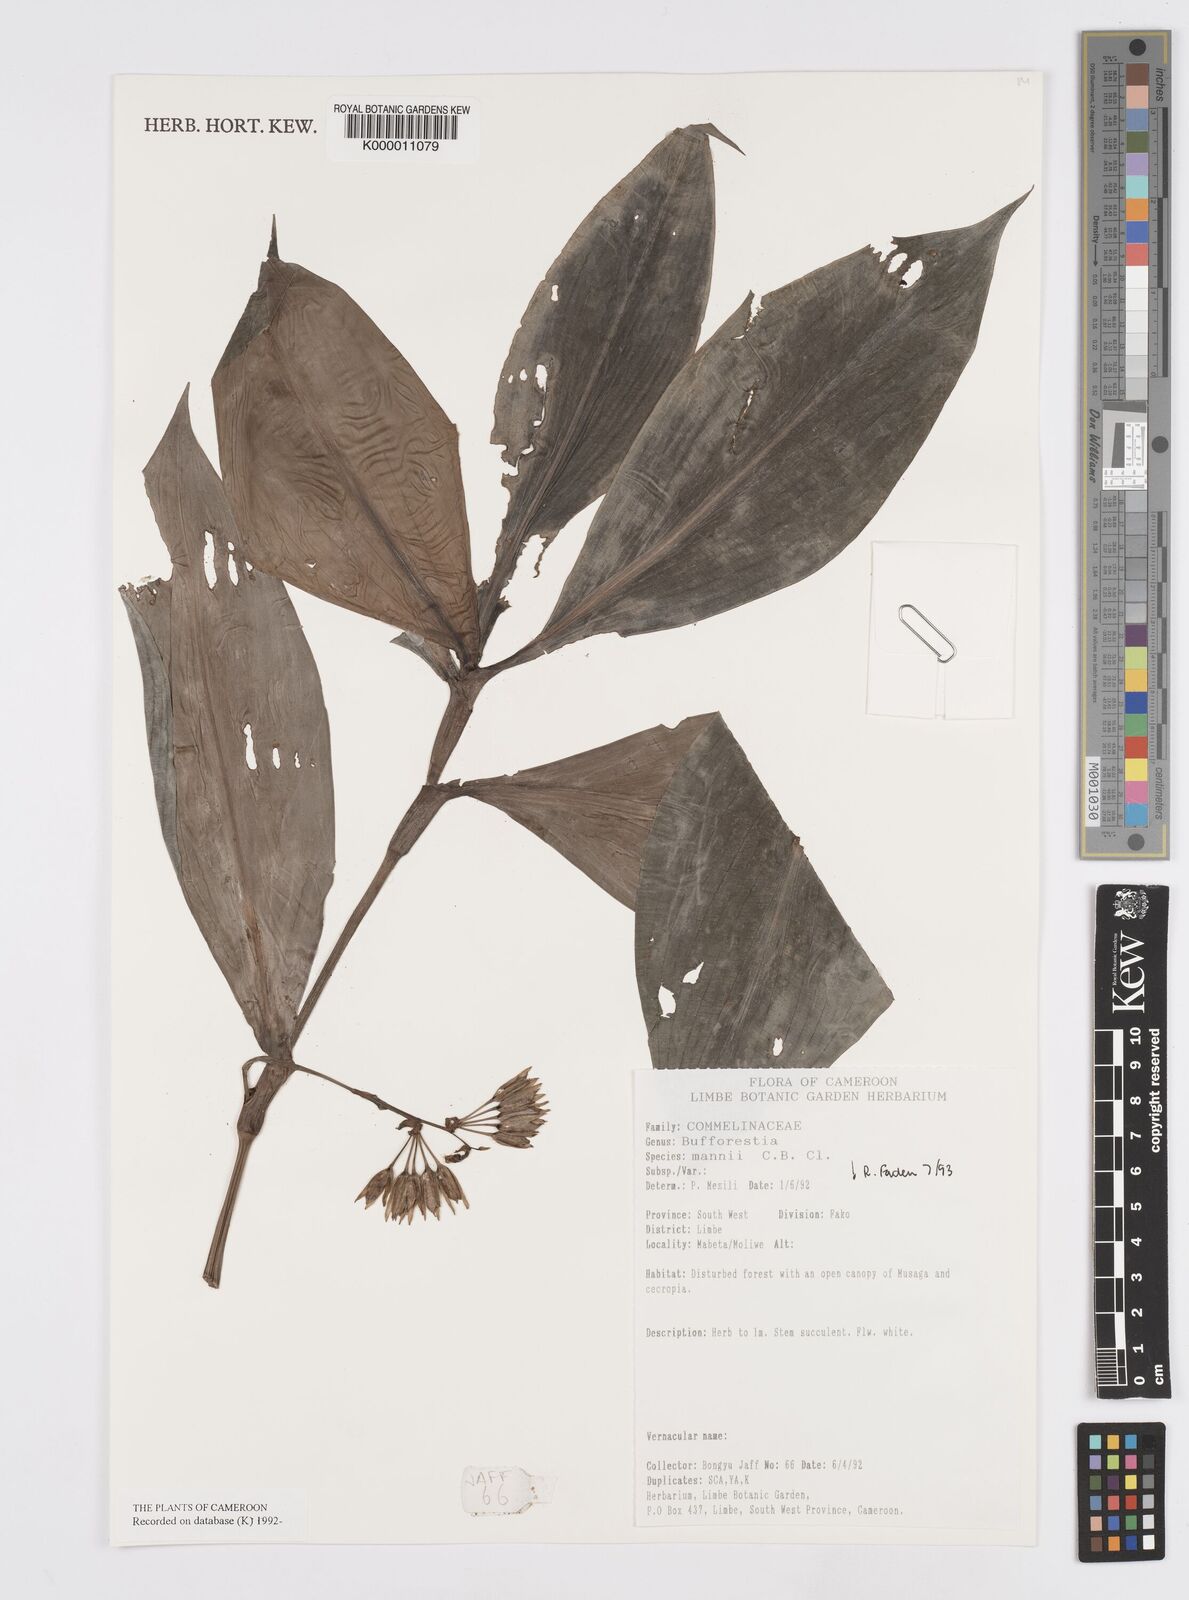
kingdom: Plantae
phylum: Tracheophyta
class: Liliopsida
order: Commelinales
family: Commelinaceae
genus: Buforrestia
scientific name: Buforrestia mannii
